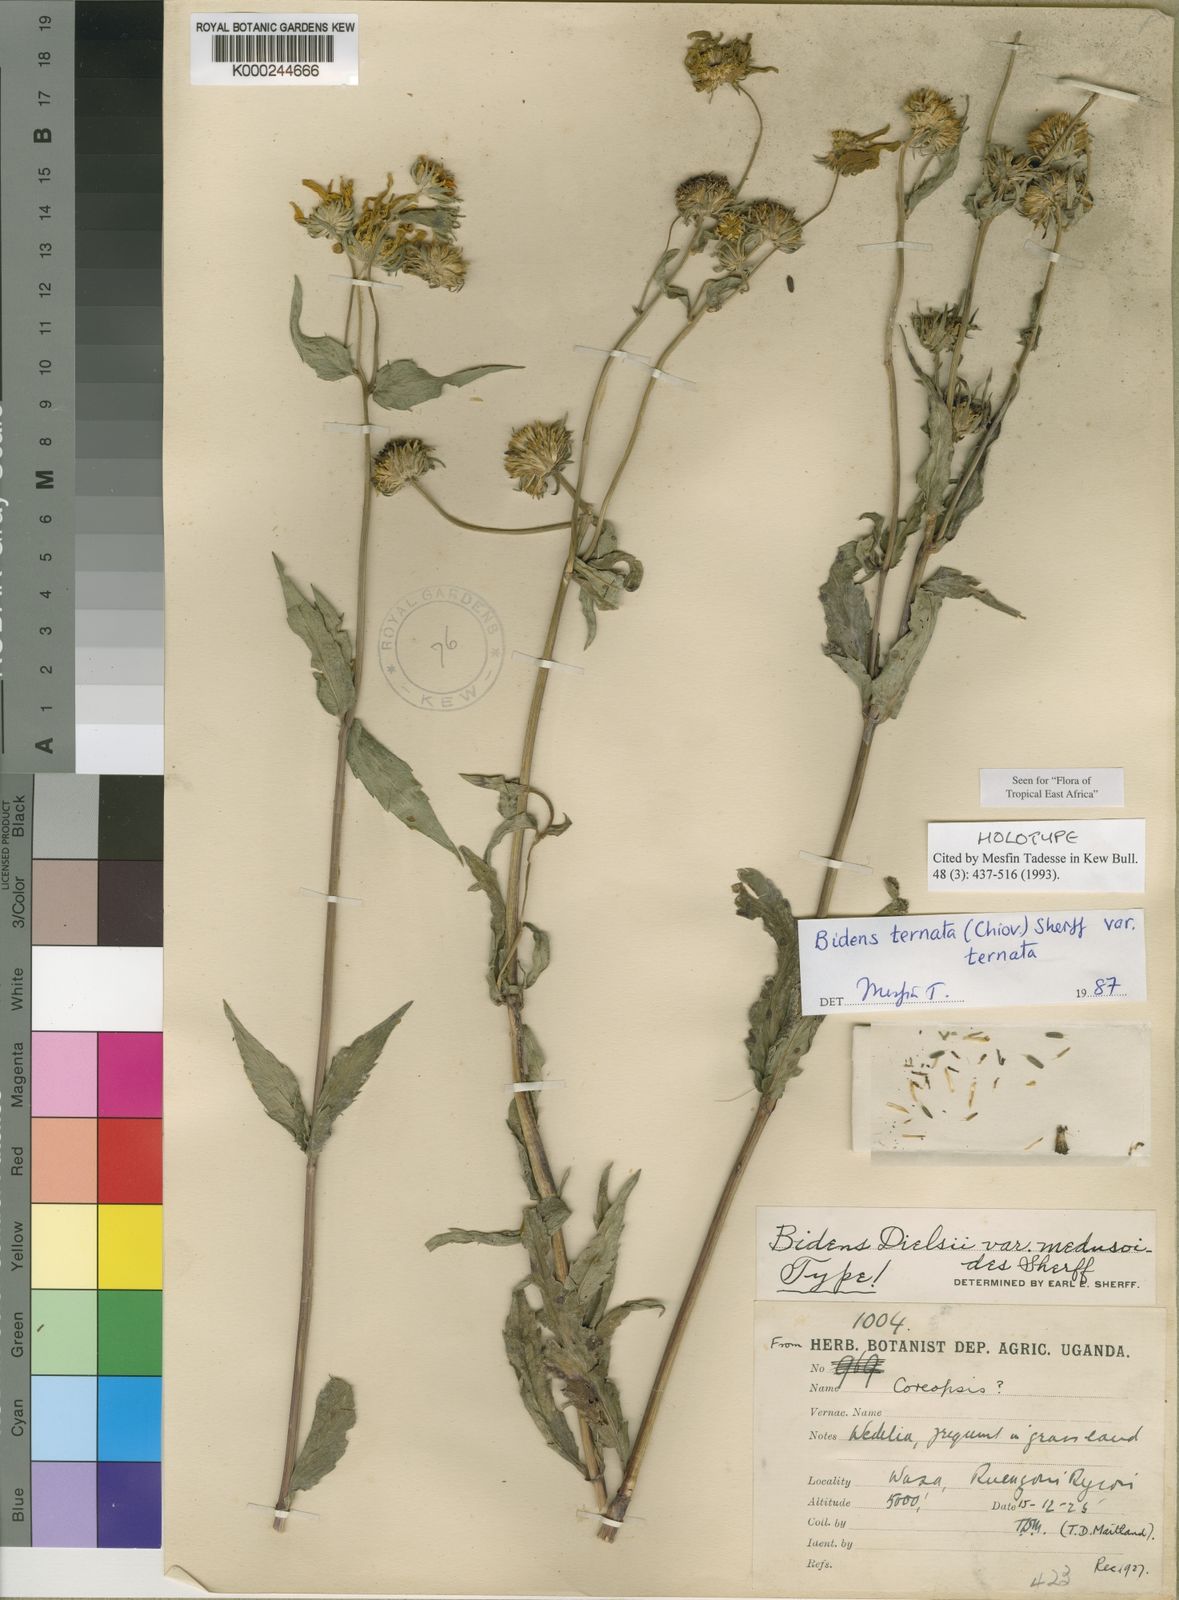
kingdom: Plantae
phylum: Tracheophyta
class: Magnoliopsida
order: Asterales
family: Asteraceae
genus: Bidens
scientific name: Bidens ternata
